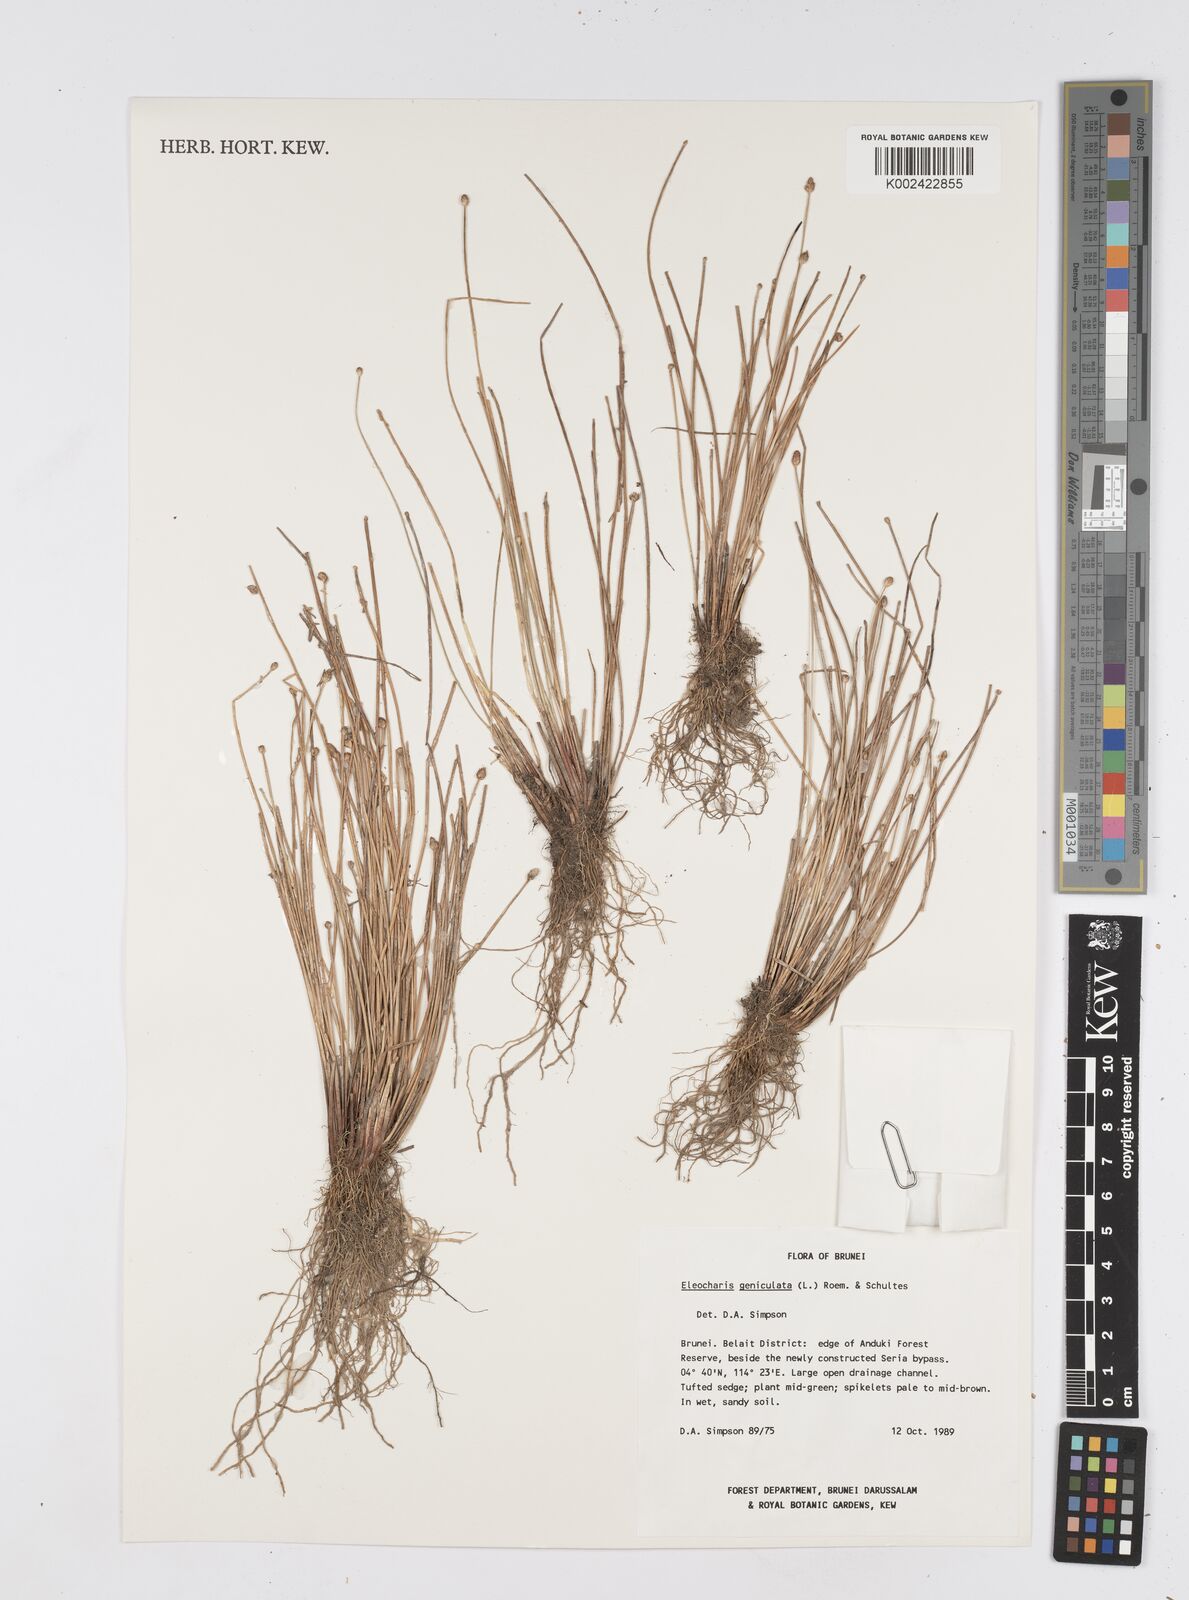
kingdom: Plantae
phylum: Tracheophyta
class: Liliopsida
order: Poales
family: Cyperaceae
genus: Eleocharis
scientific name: Eleocharis geniculata
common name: Canada spikesedge
